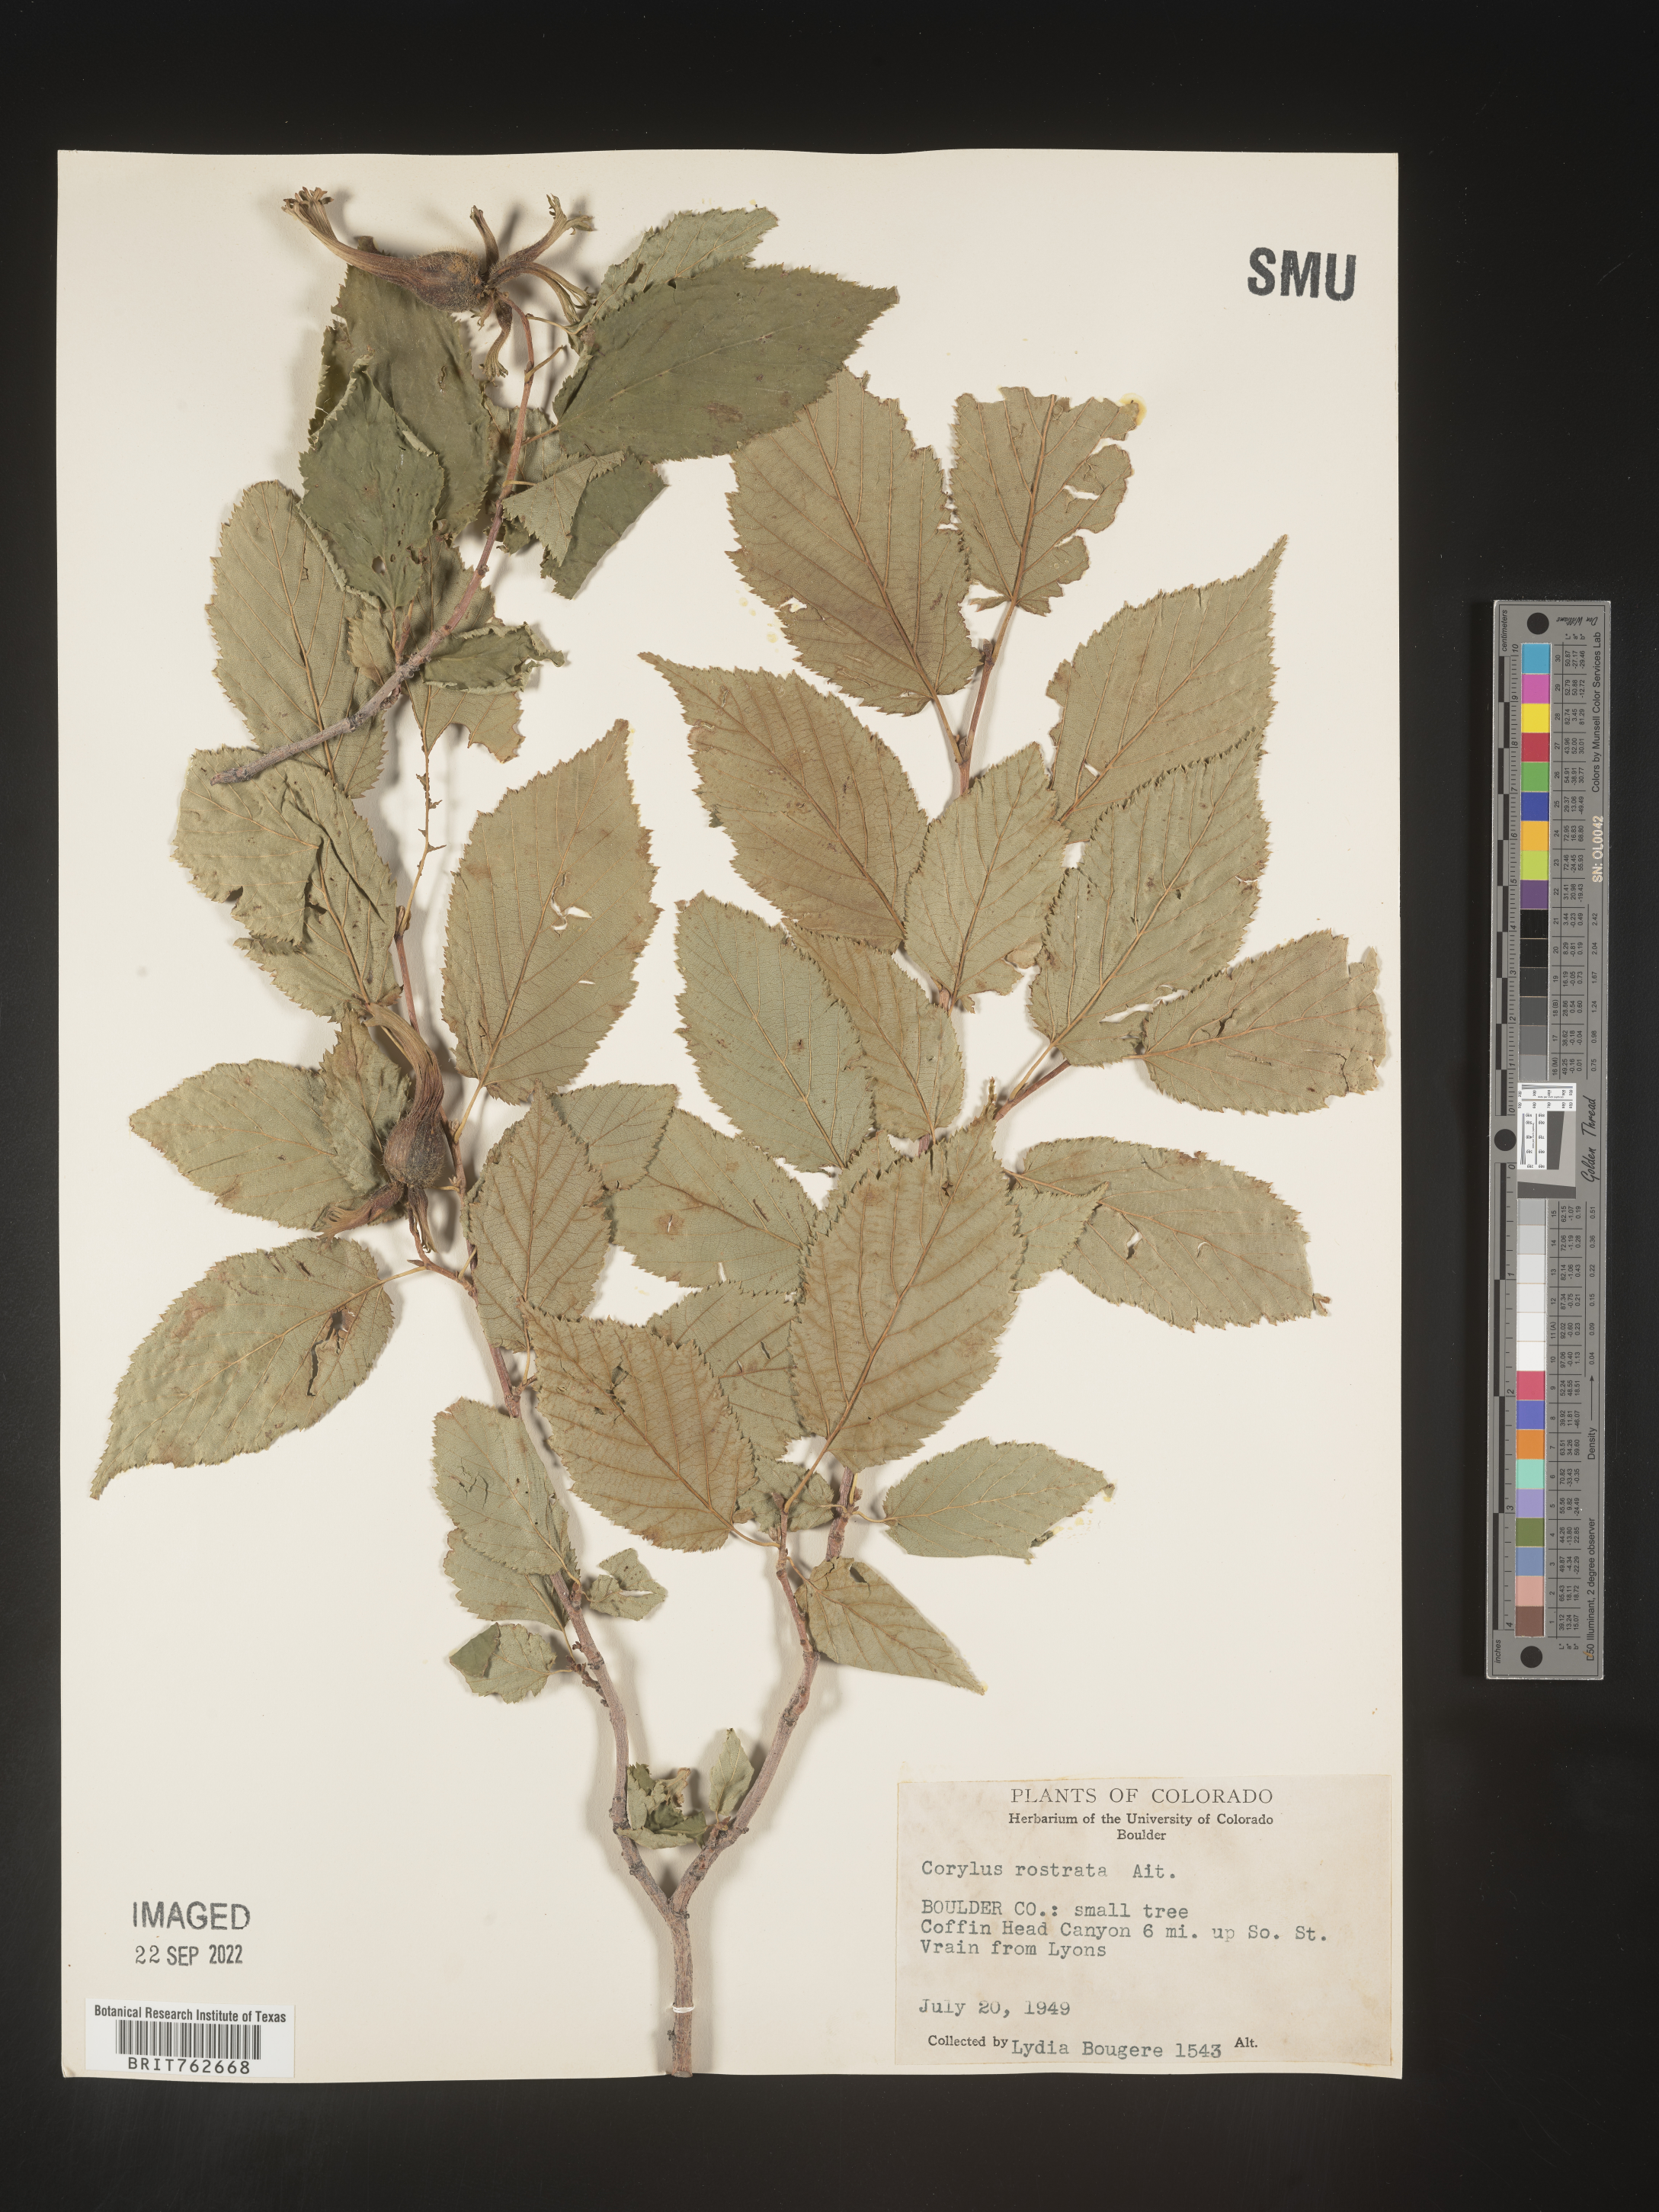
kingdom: Plantae
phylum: Tracheophyta
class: Magnoliopsida
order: Fagales
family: Betulaceae
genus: Corylus
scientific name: Corylus cornuta
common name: Beaked hazel
